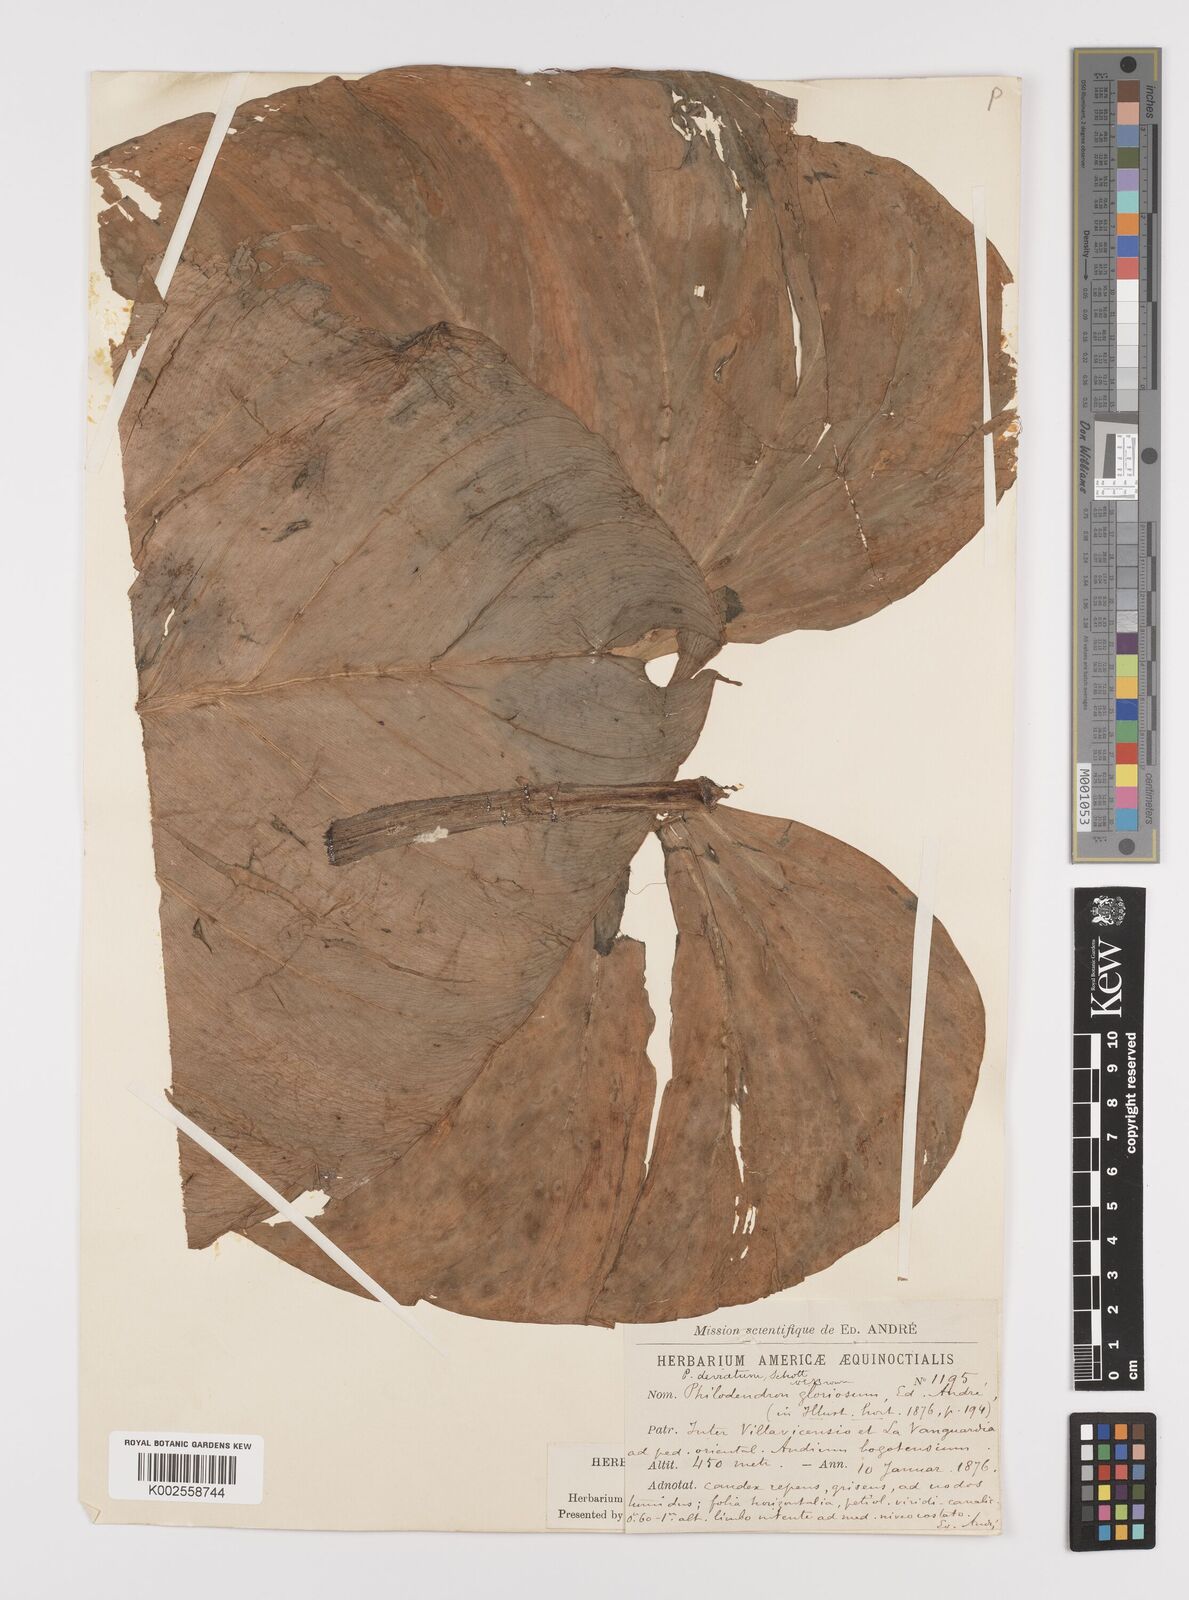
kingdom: Plantae
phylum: Tracheophyta
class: Liliopsida
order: Alismatales
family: Araceae
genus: Philodendron
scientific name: Philodendron jacquinii
